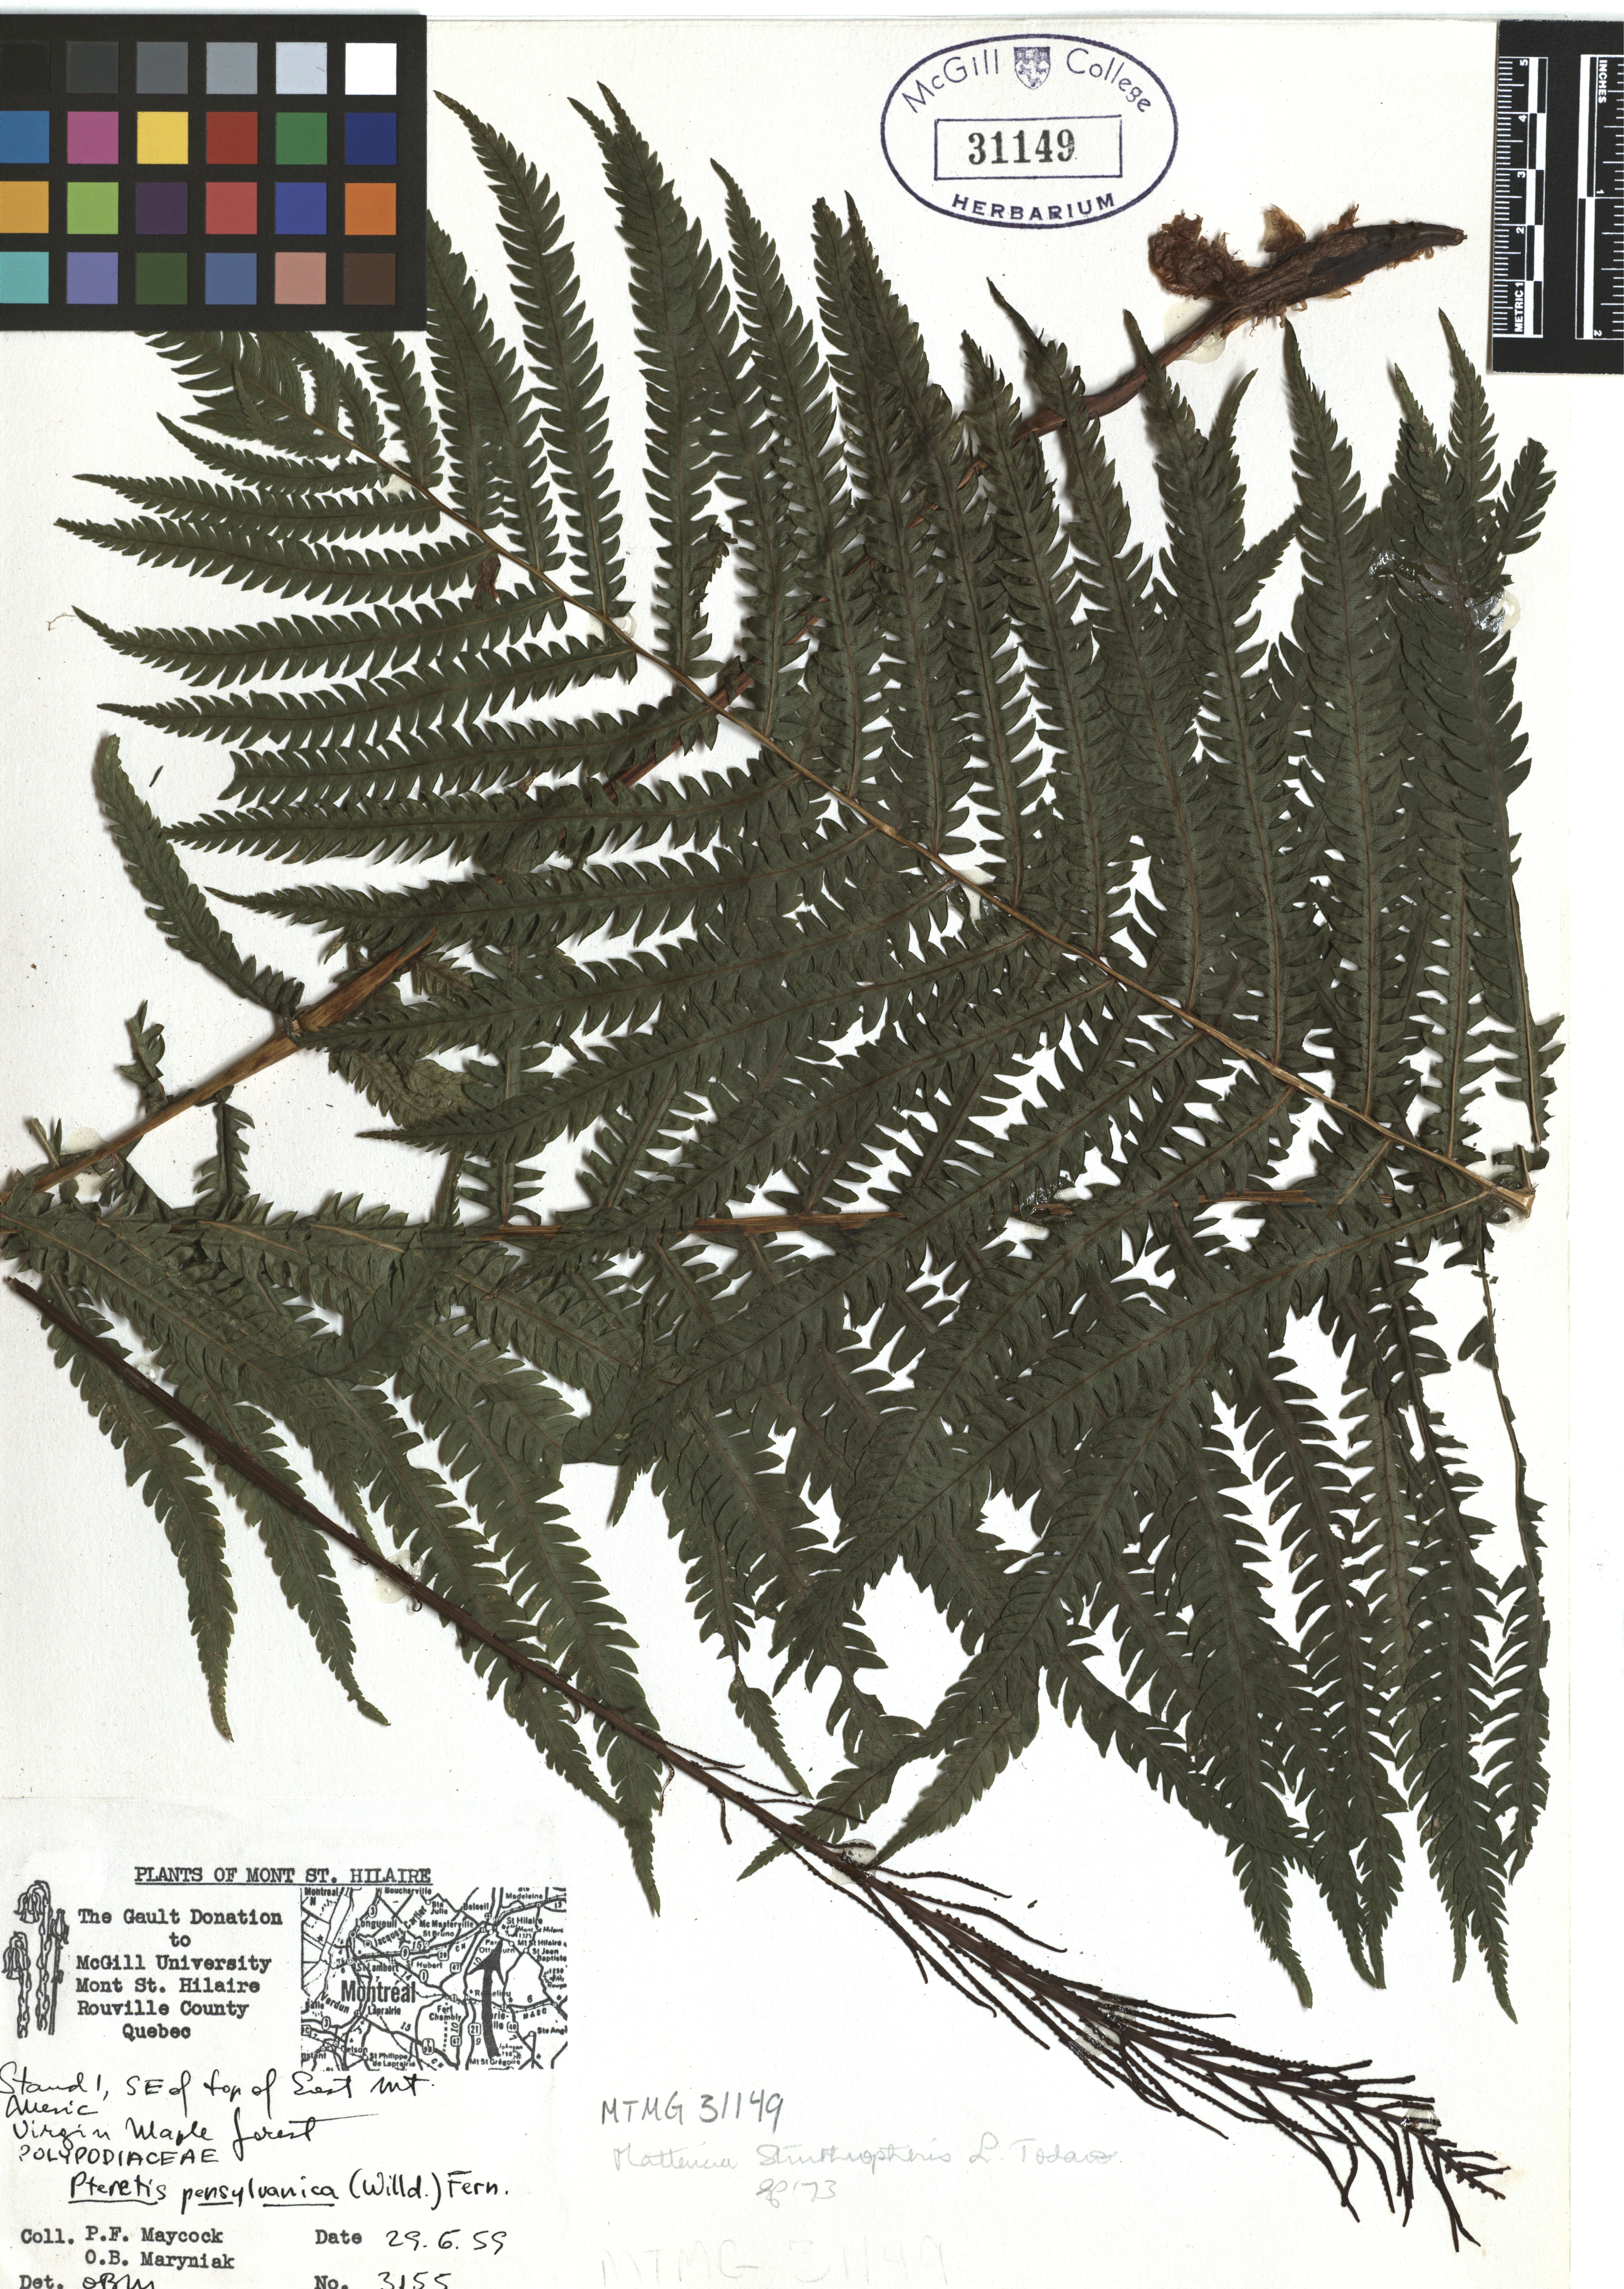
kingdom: Plantae
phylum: Tracheophyta
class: Polypodiopsida
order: Polypodiales
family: Onocleaceae
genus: Matteuccia
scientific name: Matteuccia struthiopteris
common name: Ostrich fern
